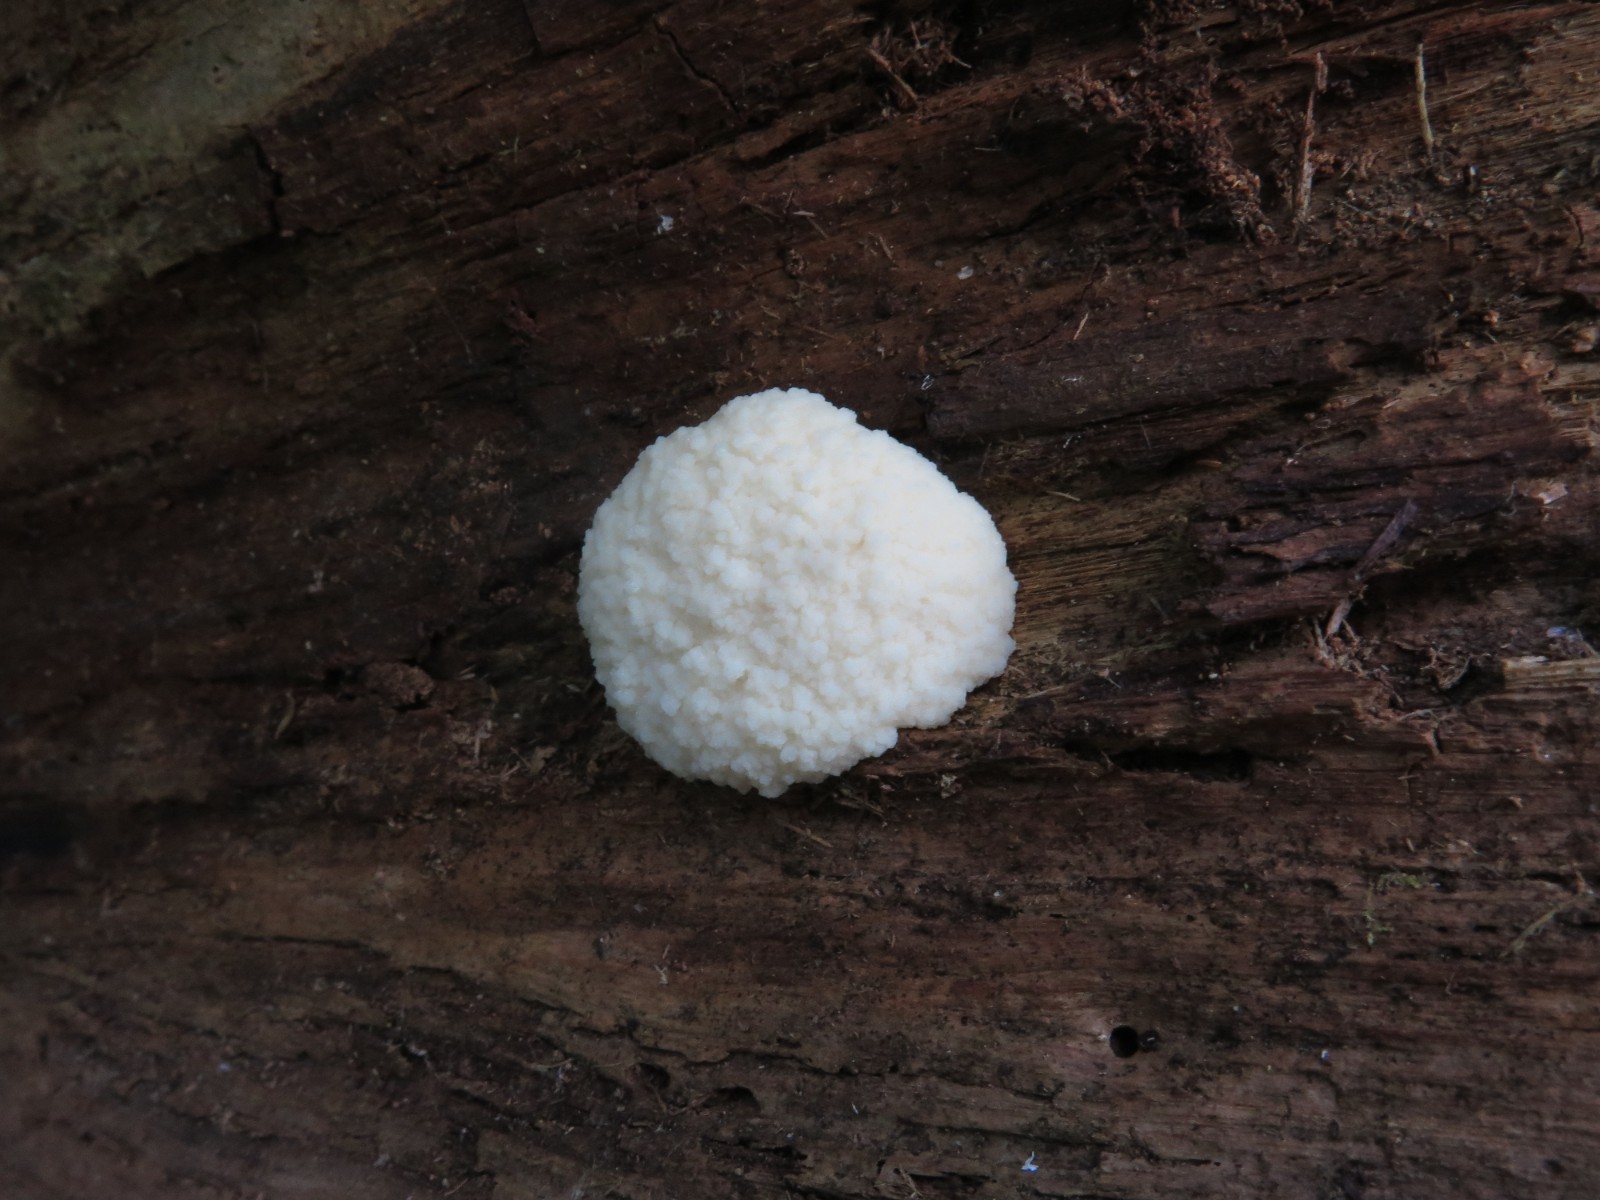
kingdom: Protozoa
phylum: Mycetozoa
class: Myxomycetes
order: Cribrariales
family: Tubiferaceae
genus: Reticularia
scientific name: Reticularia lycoperdon
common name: skinnende støvpude
